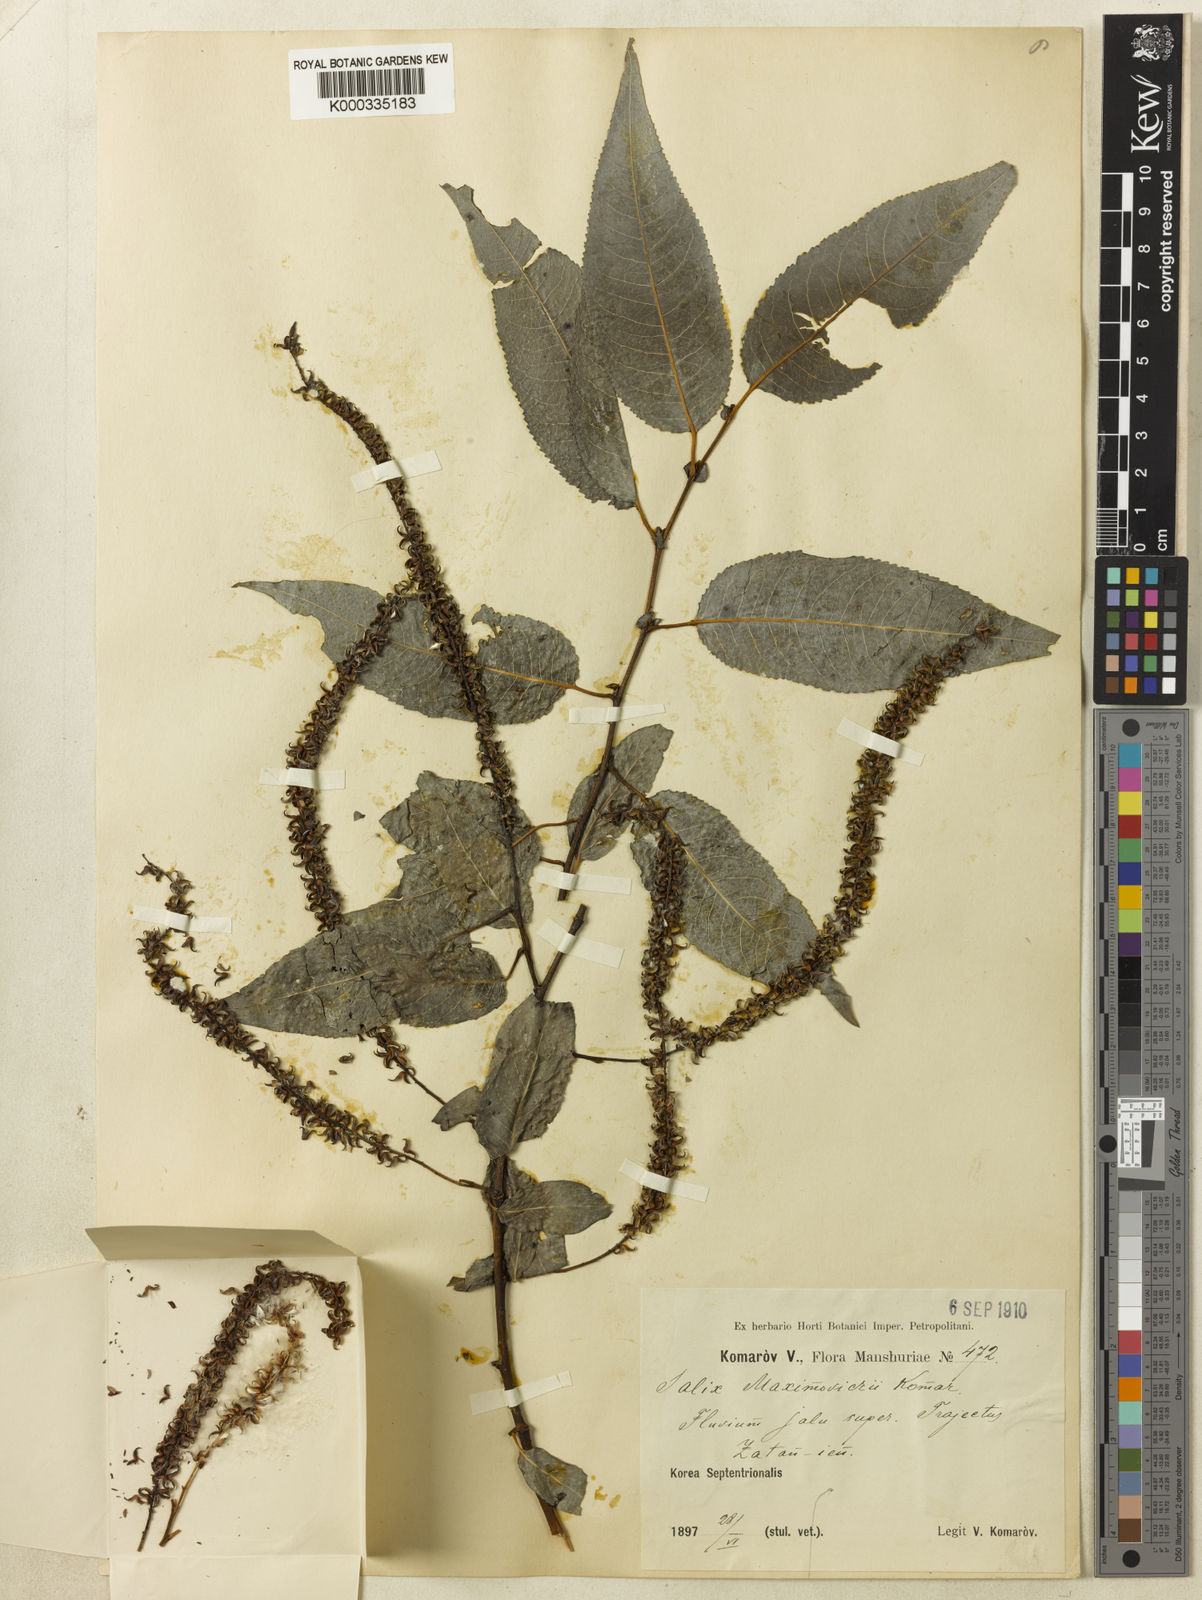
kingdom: Plantae
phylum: Tracheophyta
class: Magnoliopsida
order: Malpighiales
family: Salicaceae
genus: Chosenia
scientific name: Chosenia cardiophylla
